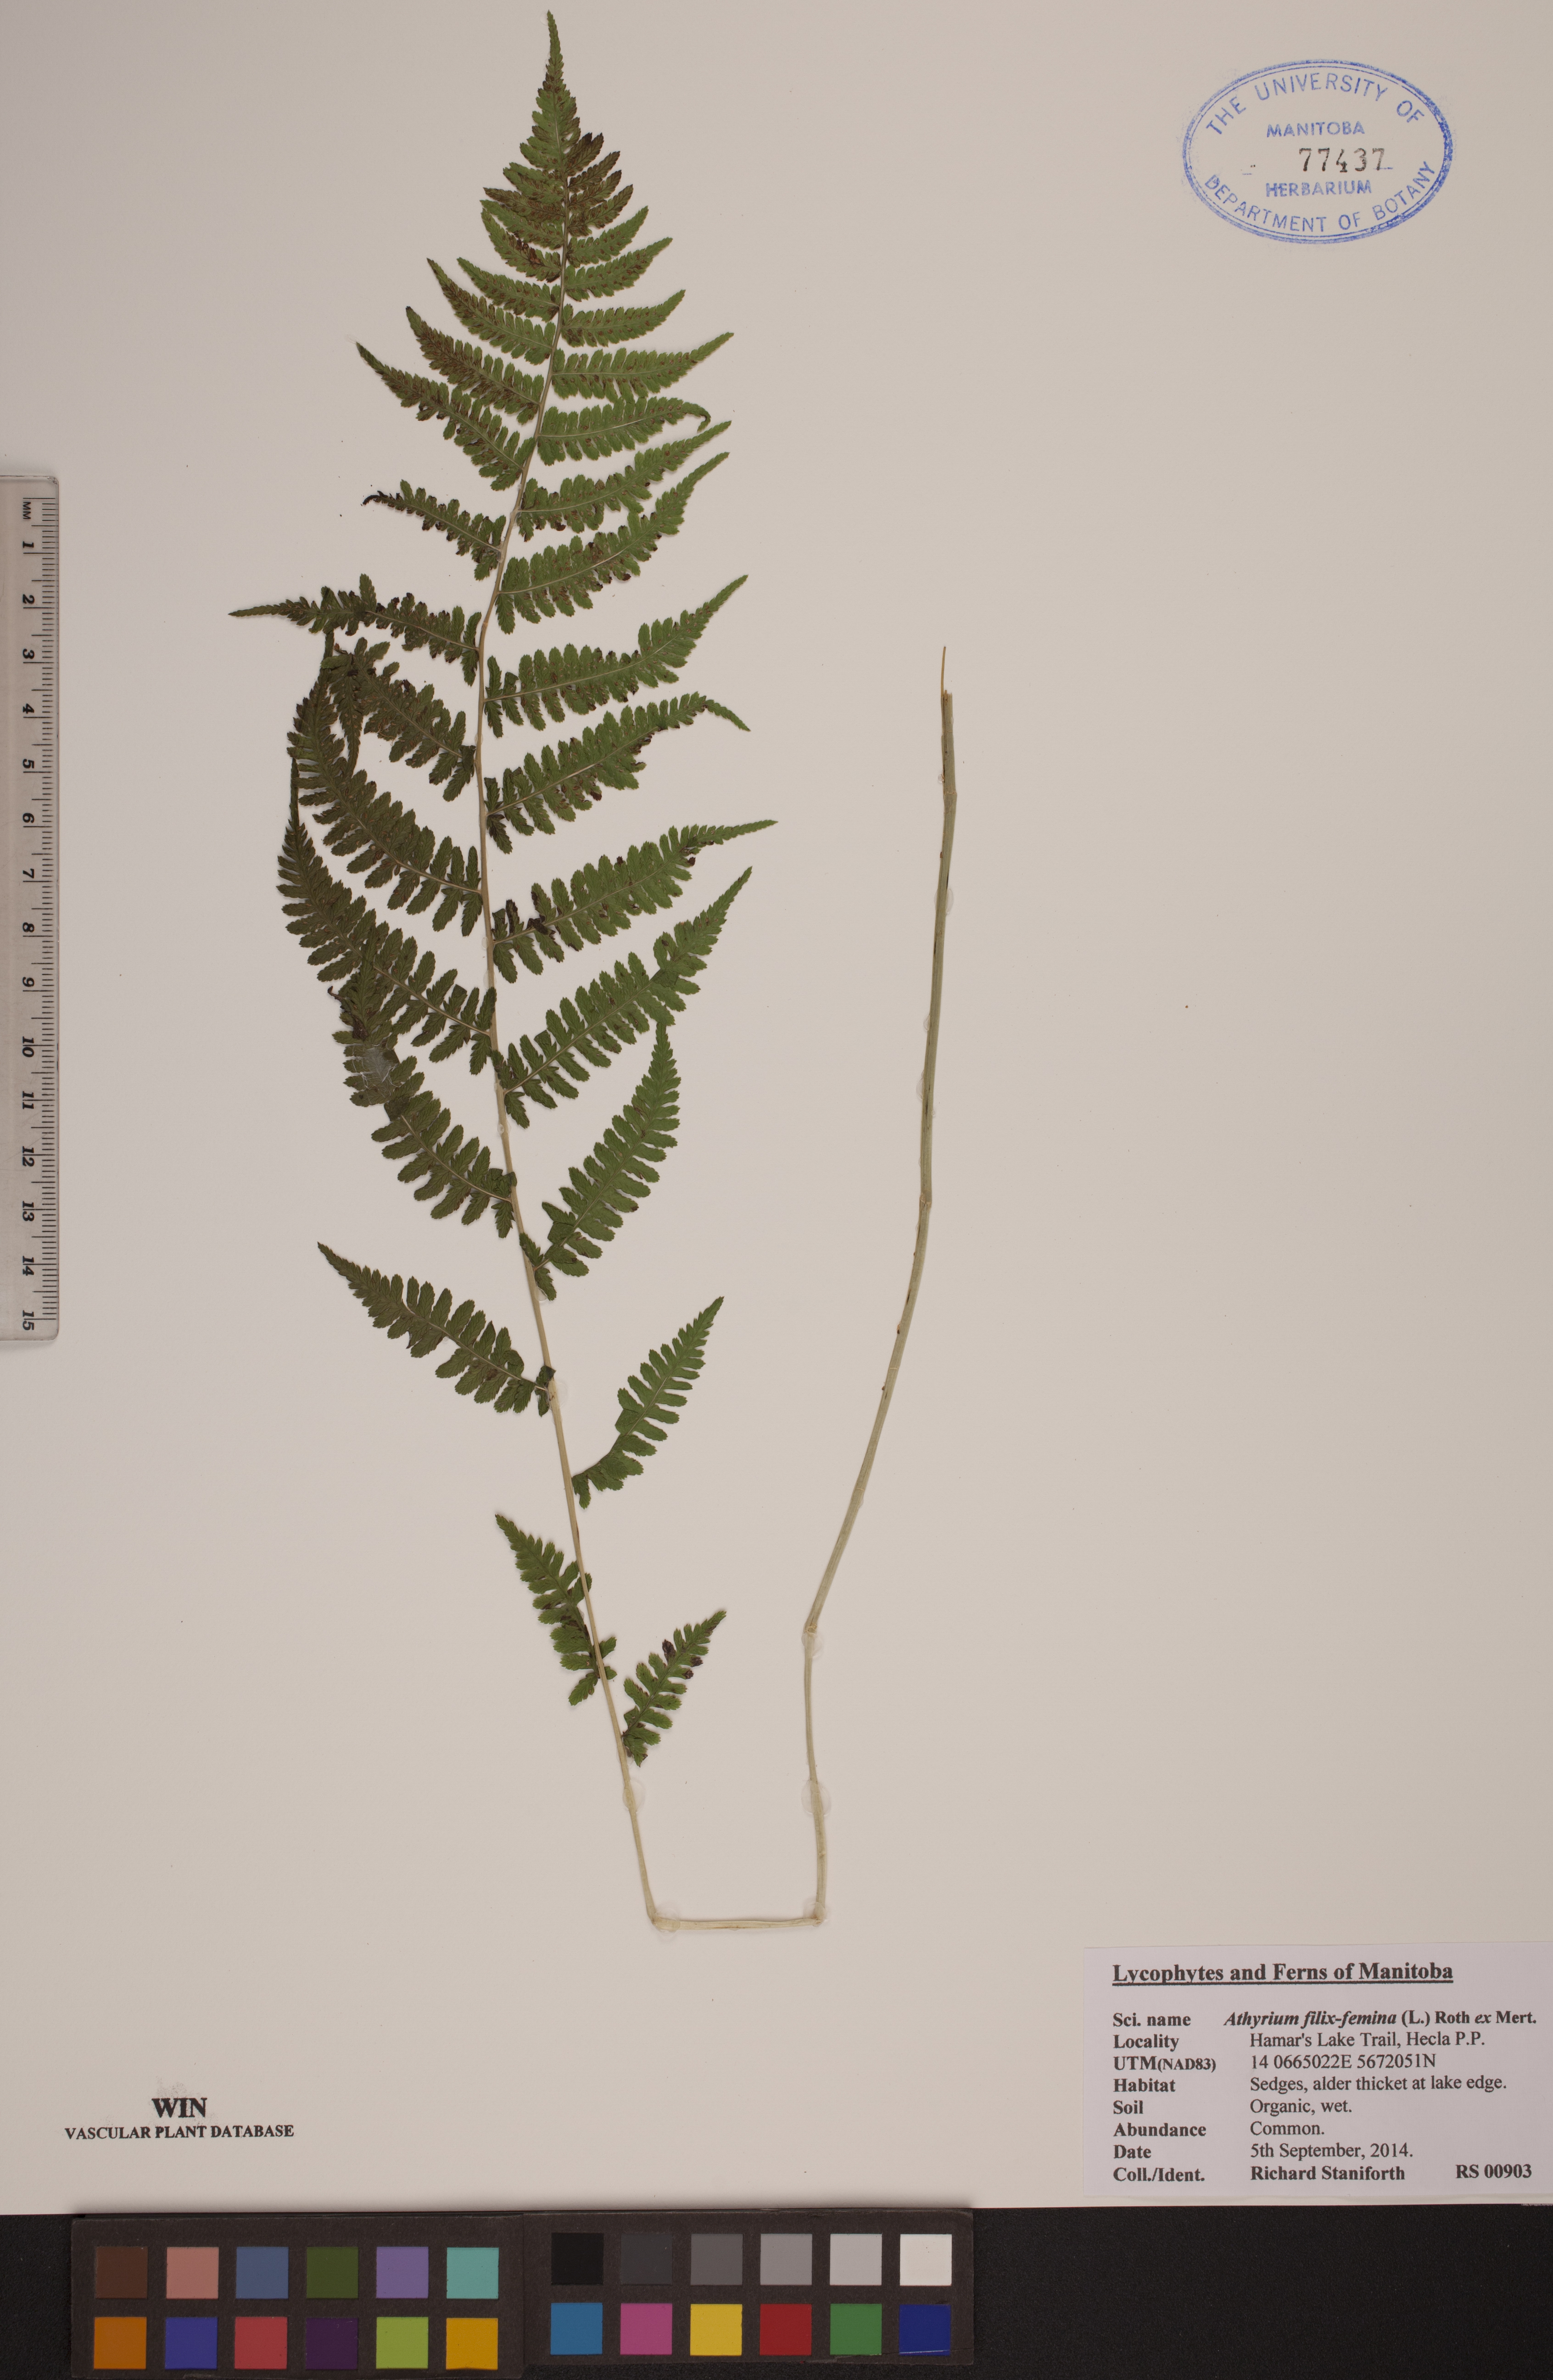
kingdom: Plantae
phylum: Tracheophyta
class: Polypodiopsida
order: Polypodiales
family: Athyriaceae
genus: Athyrium
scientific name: Athyrium filix-femina
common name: Lady fern
